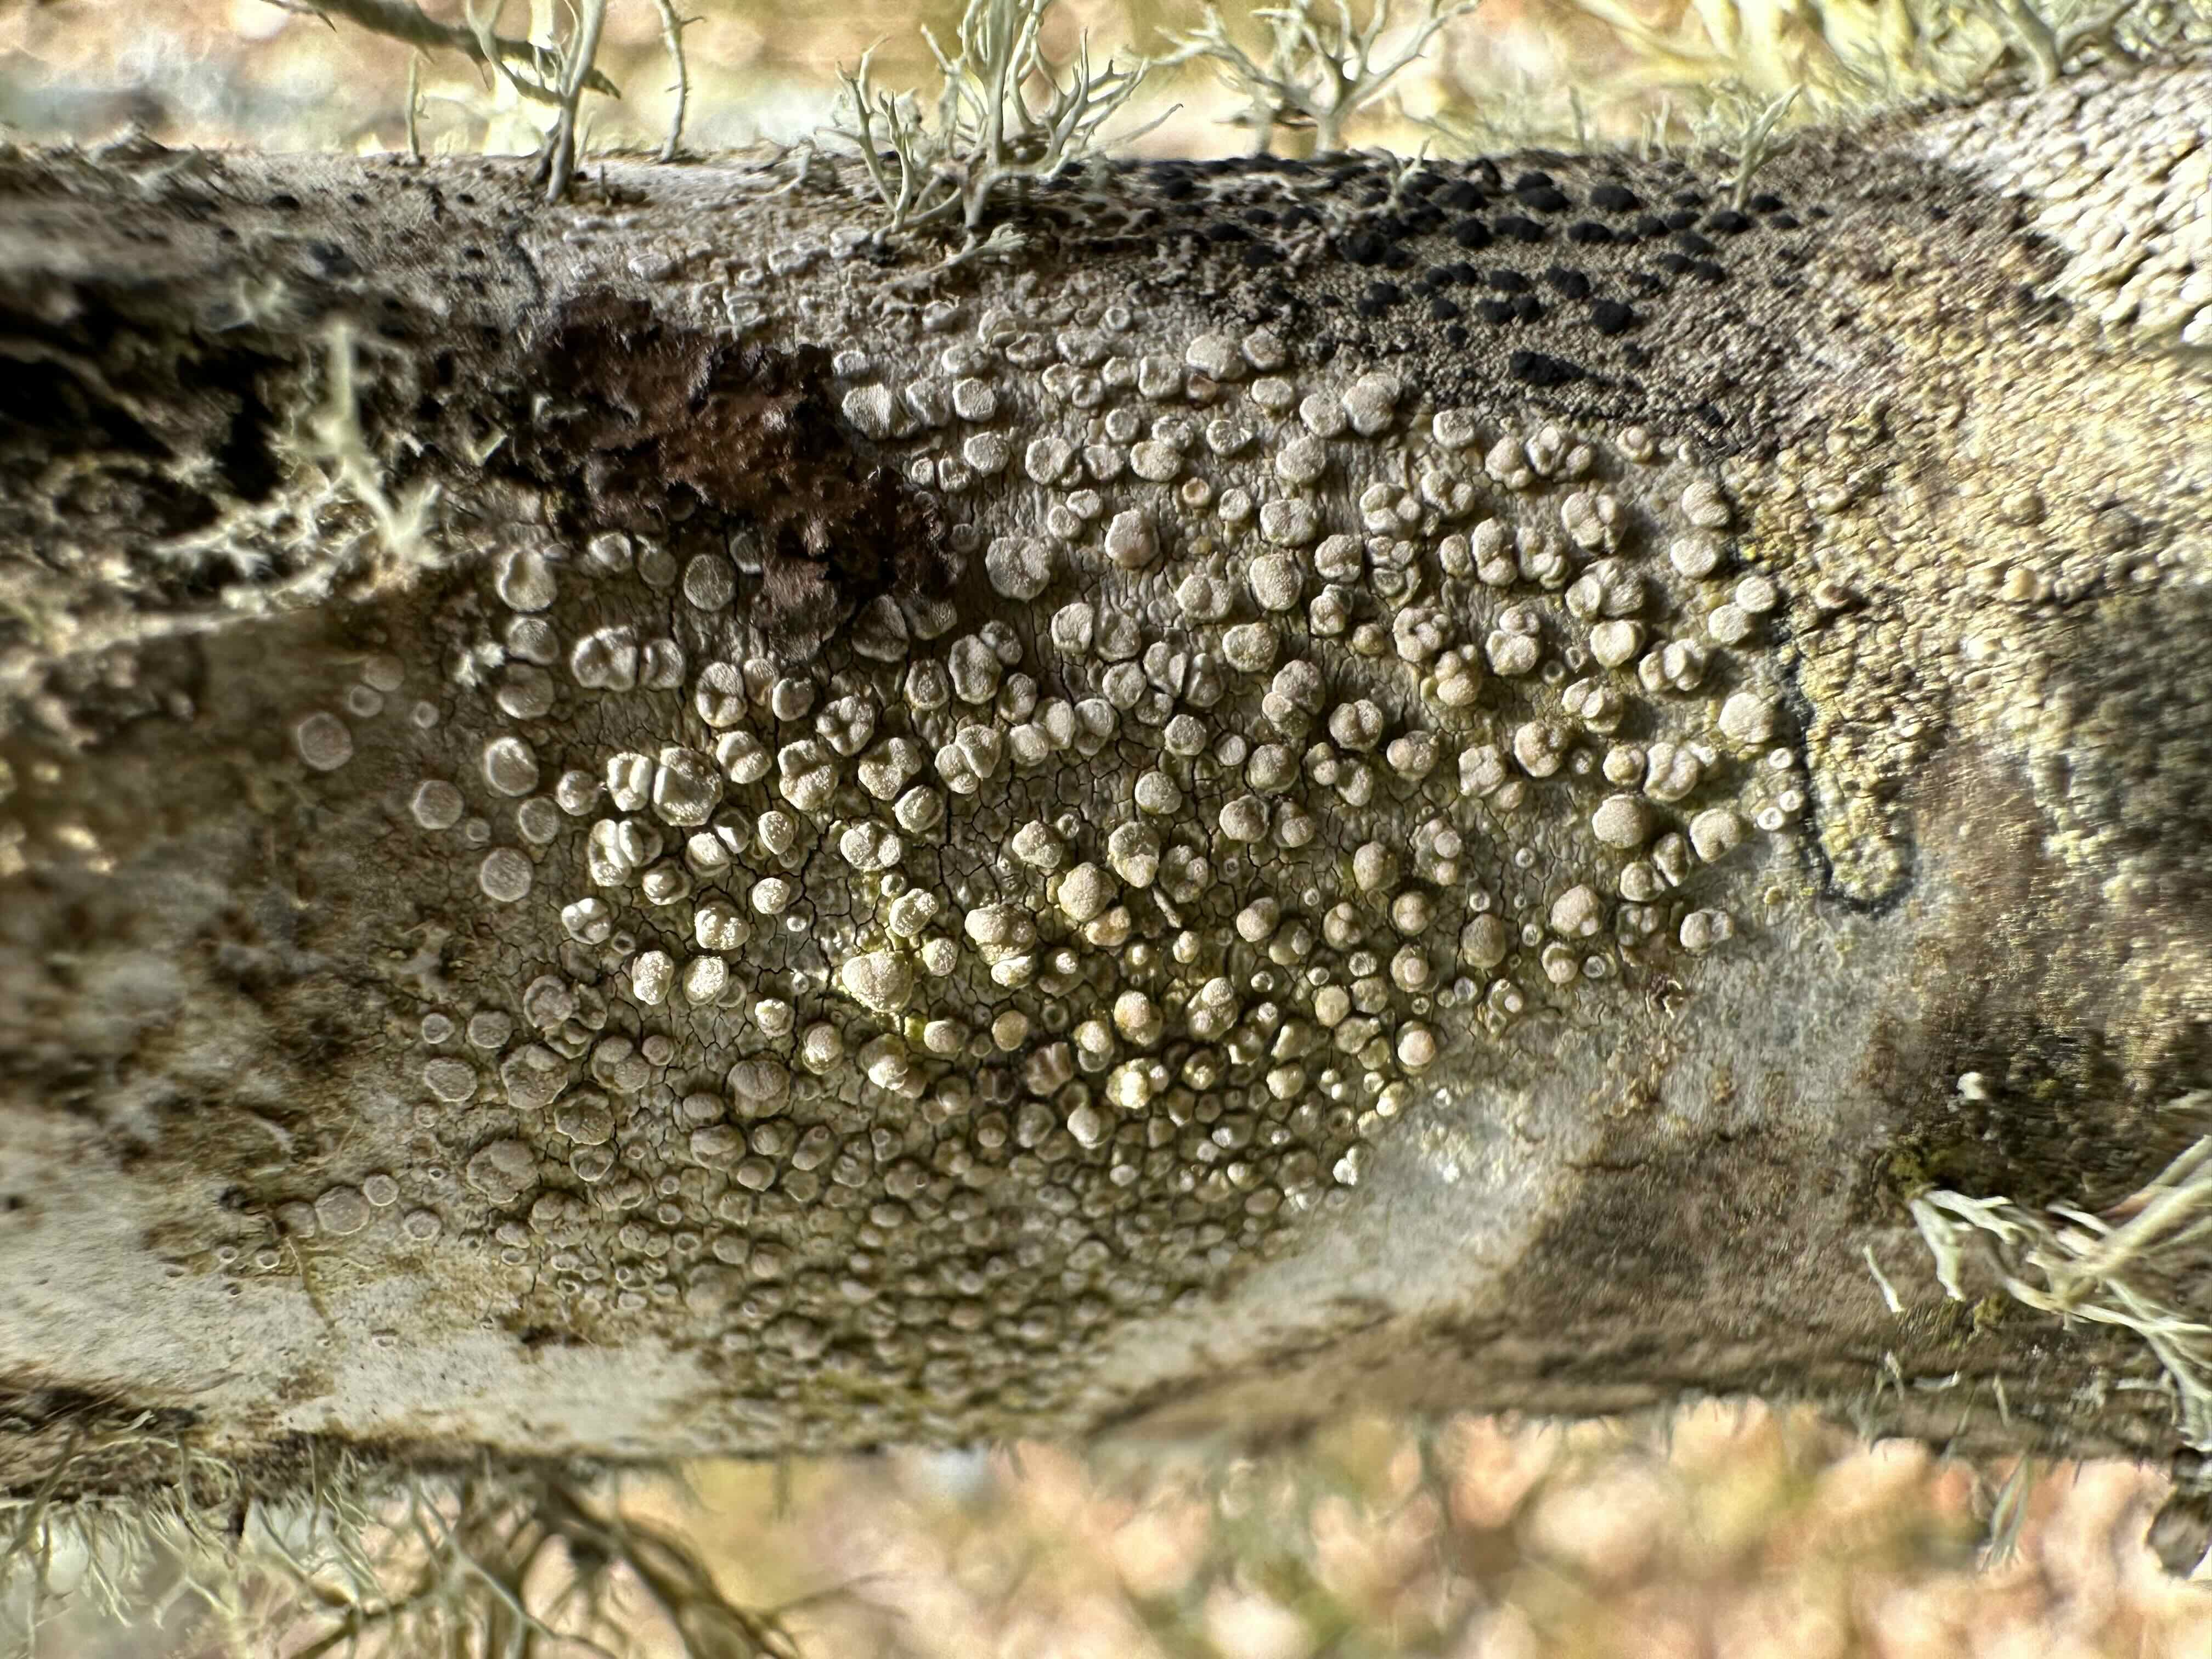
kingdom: Fungi
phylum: Ascomycota
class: Lecanoromycetes
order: Lecanorales
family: Lecanoraceae
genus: Glaucomaria
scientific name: Glaucomaria carpinea
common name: hviddugget kantskivelav
